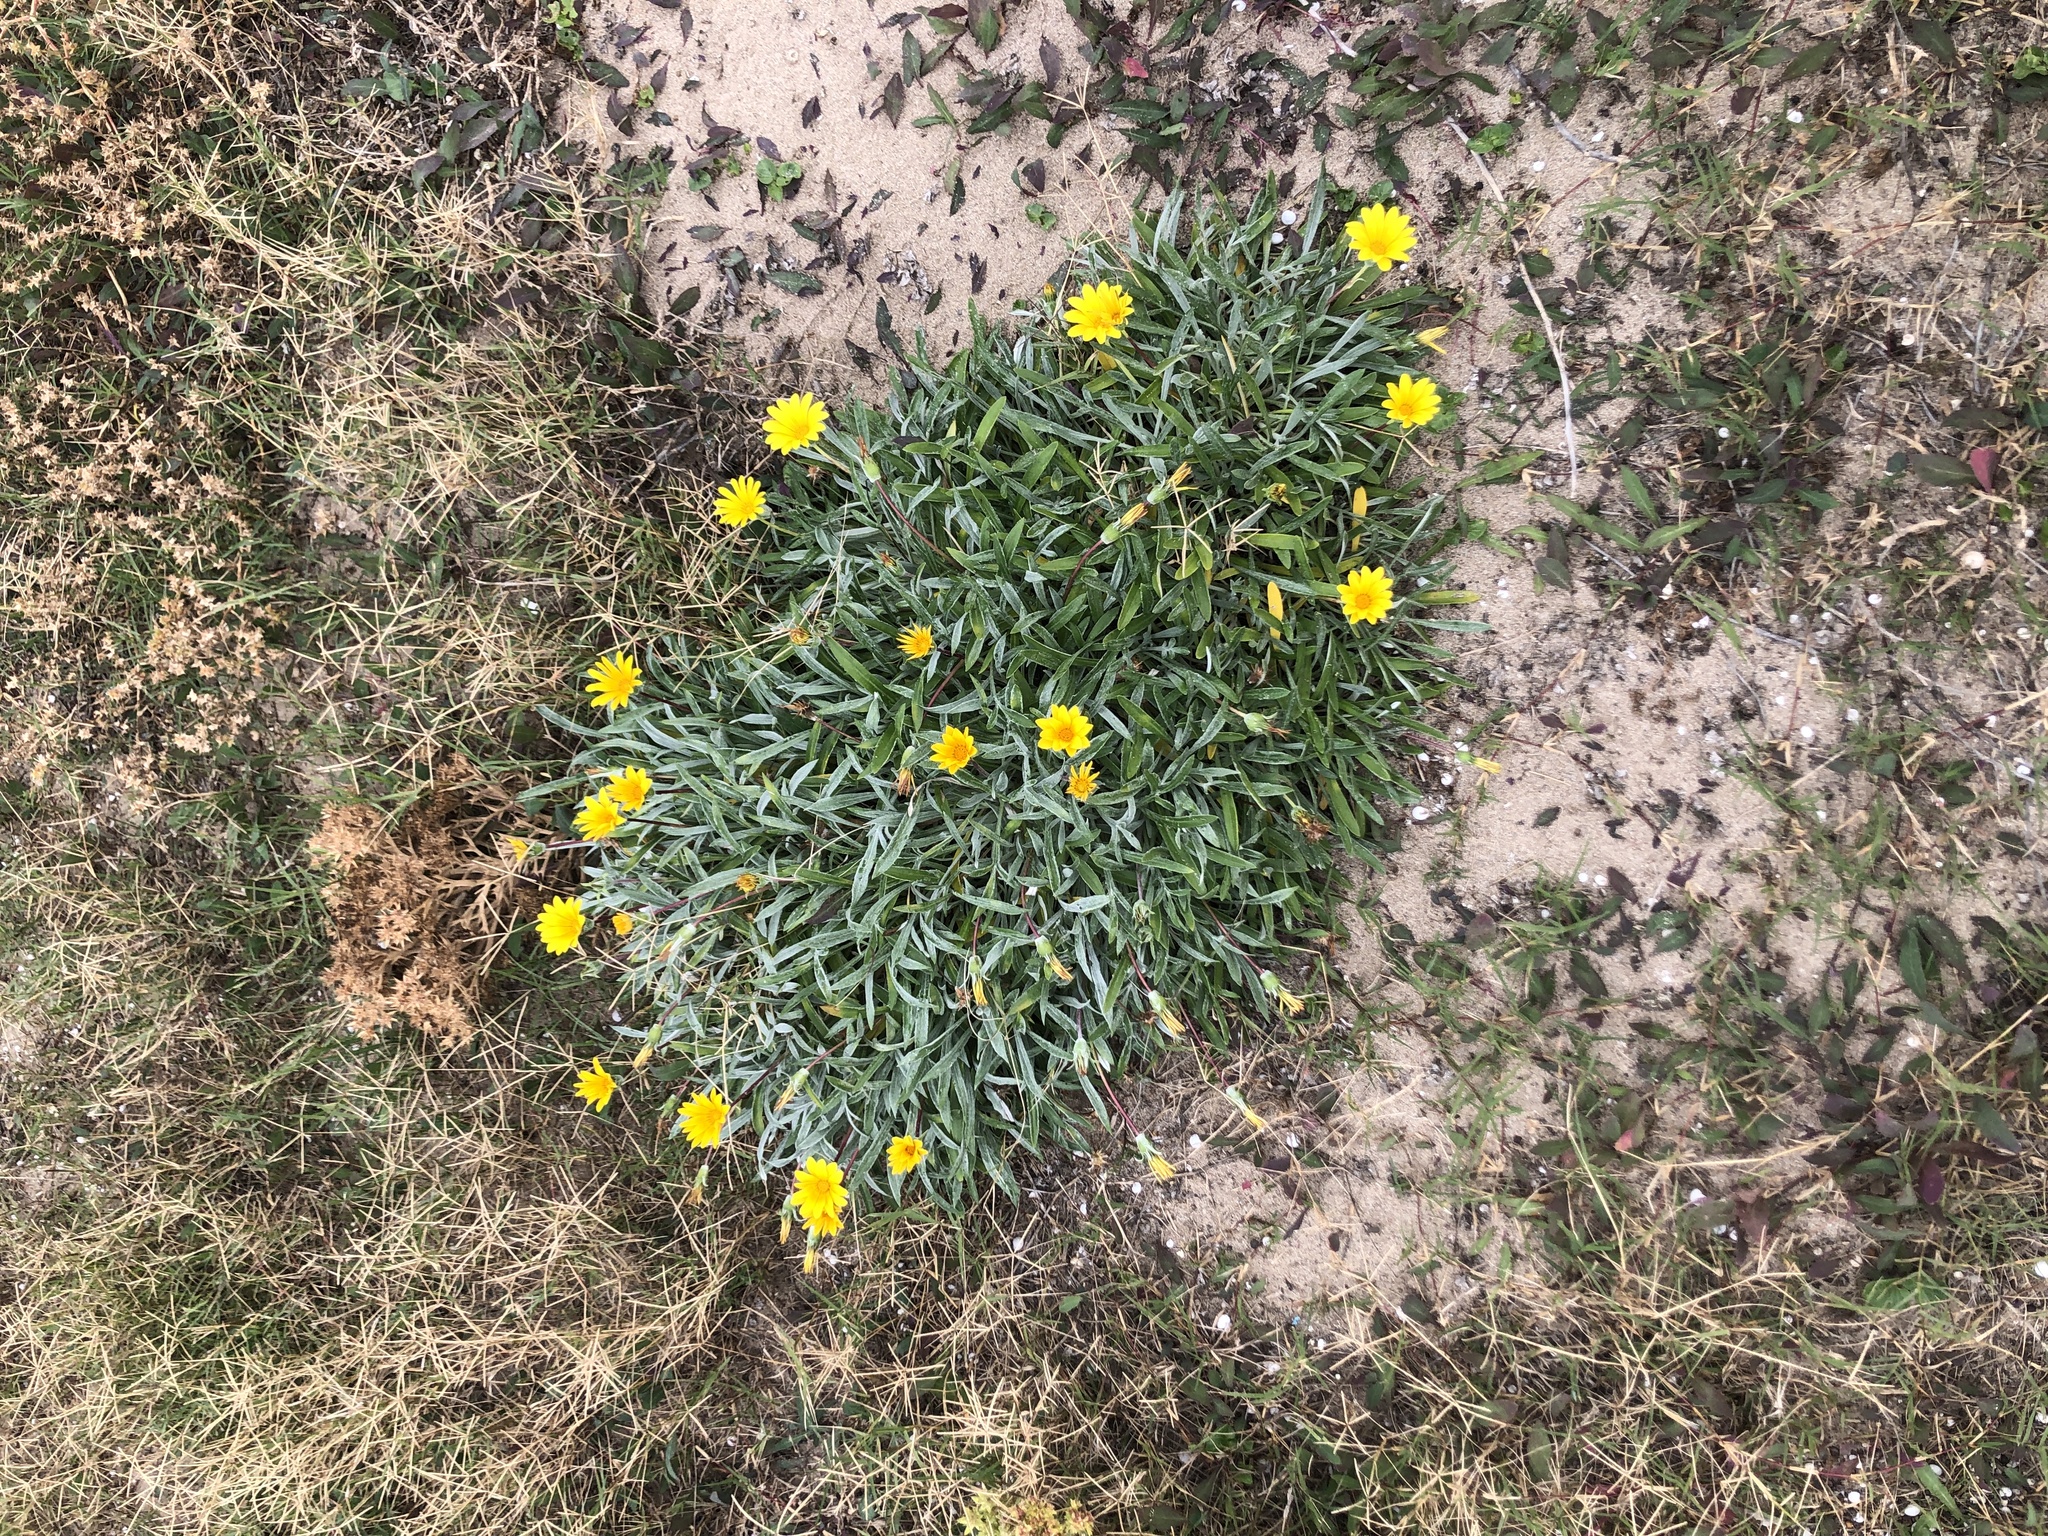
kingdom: Plantae
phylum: Tracheophyta
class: Magnoliopsida
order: Asterales
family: Asteraceae
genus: Gazania
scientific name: Gazania rigens
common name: Treasureflower
